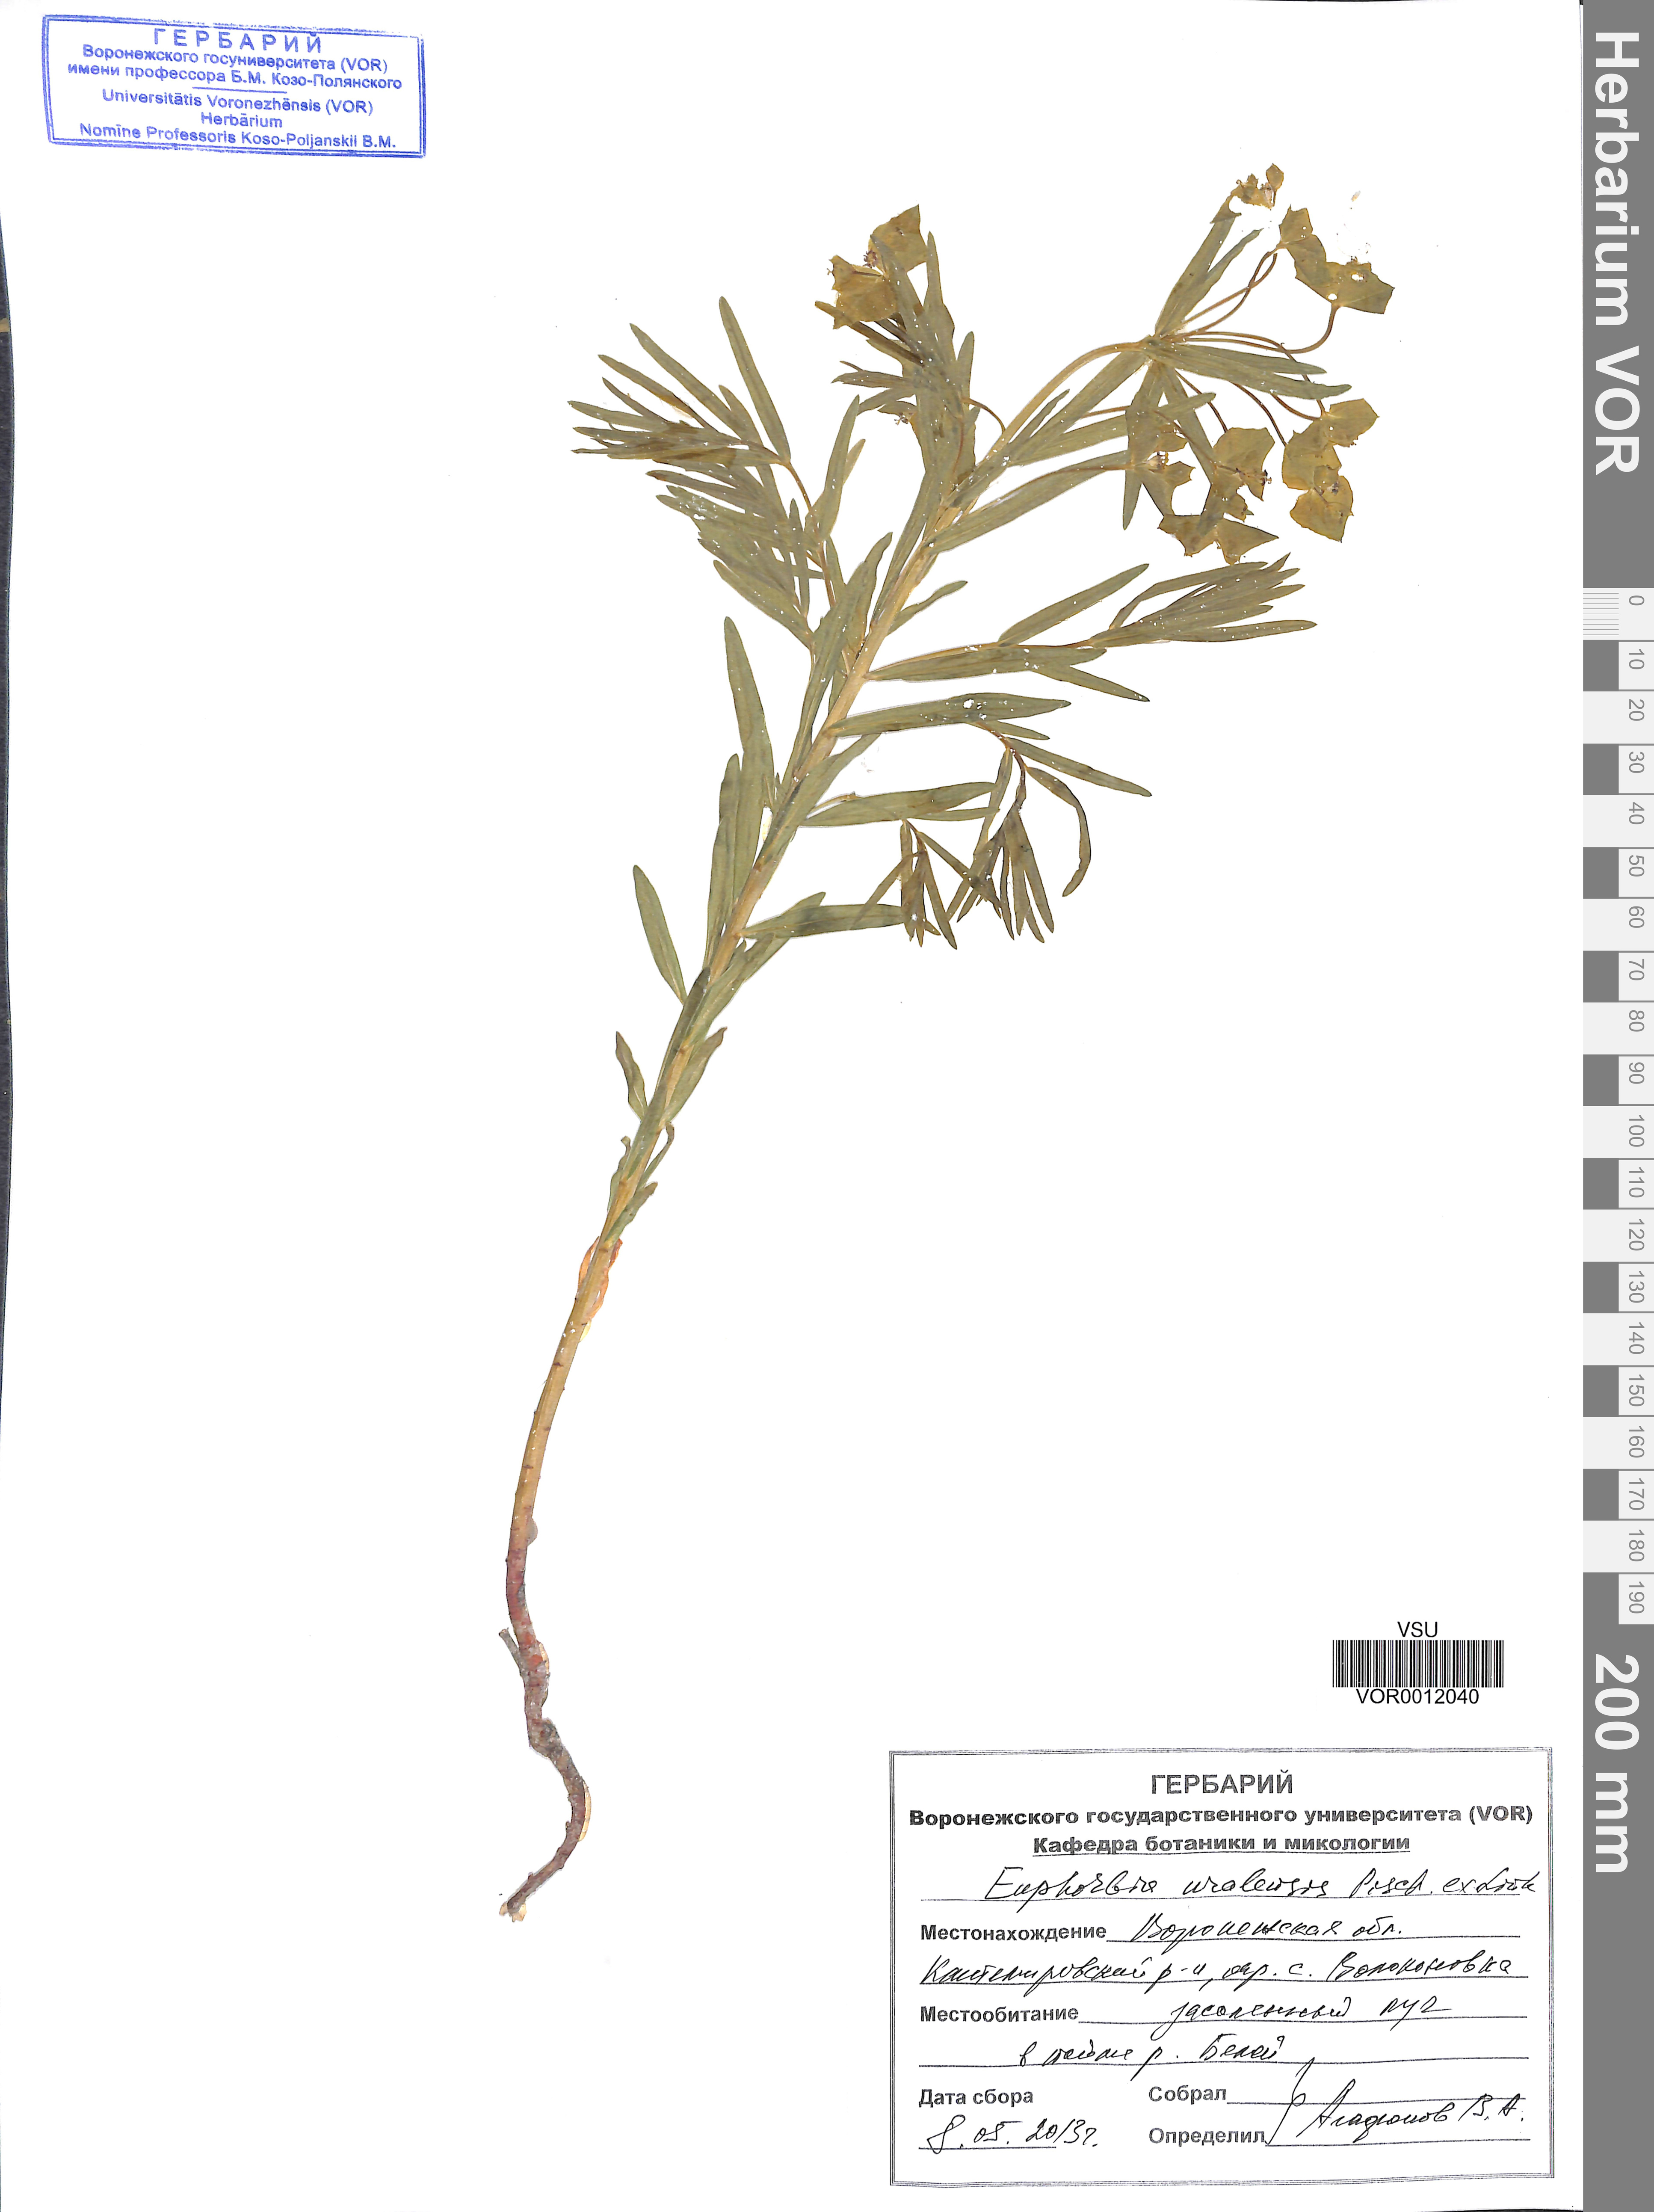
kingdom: Plantae
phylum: Tracheophyta
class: Magnoliopsida
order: Malpighiales
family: Euphorbiaceae
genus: Euphorbia
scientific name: Euphorbia uralensis
